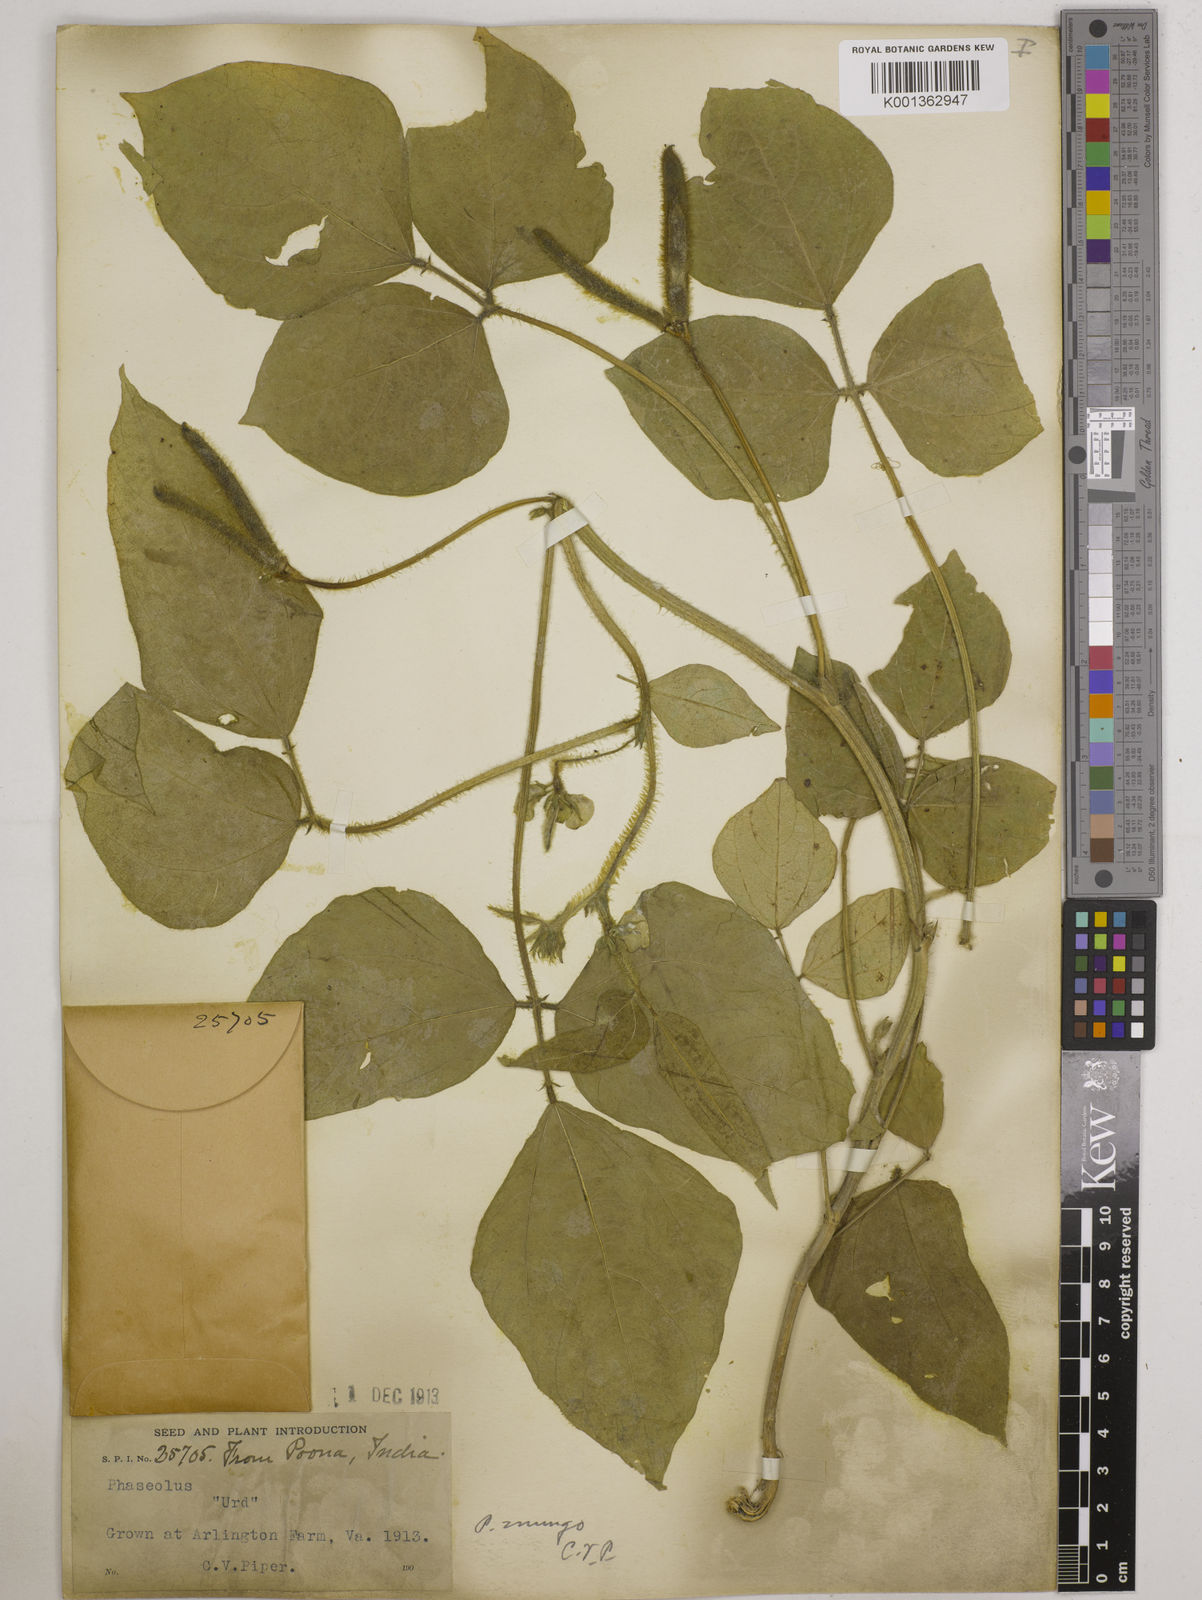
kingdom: Plantae
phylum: Tracheophyta
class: Magnoliopsida
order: Fabales
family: Fabaceae
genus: Vigna
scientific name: Vigna mungo
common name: Black gram
